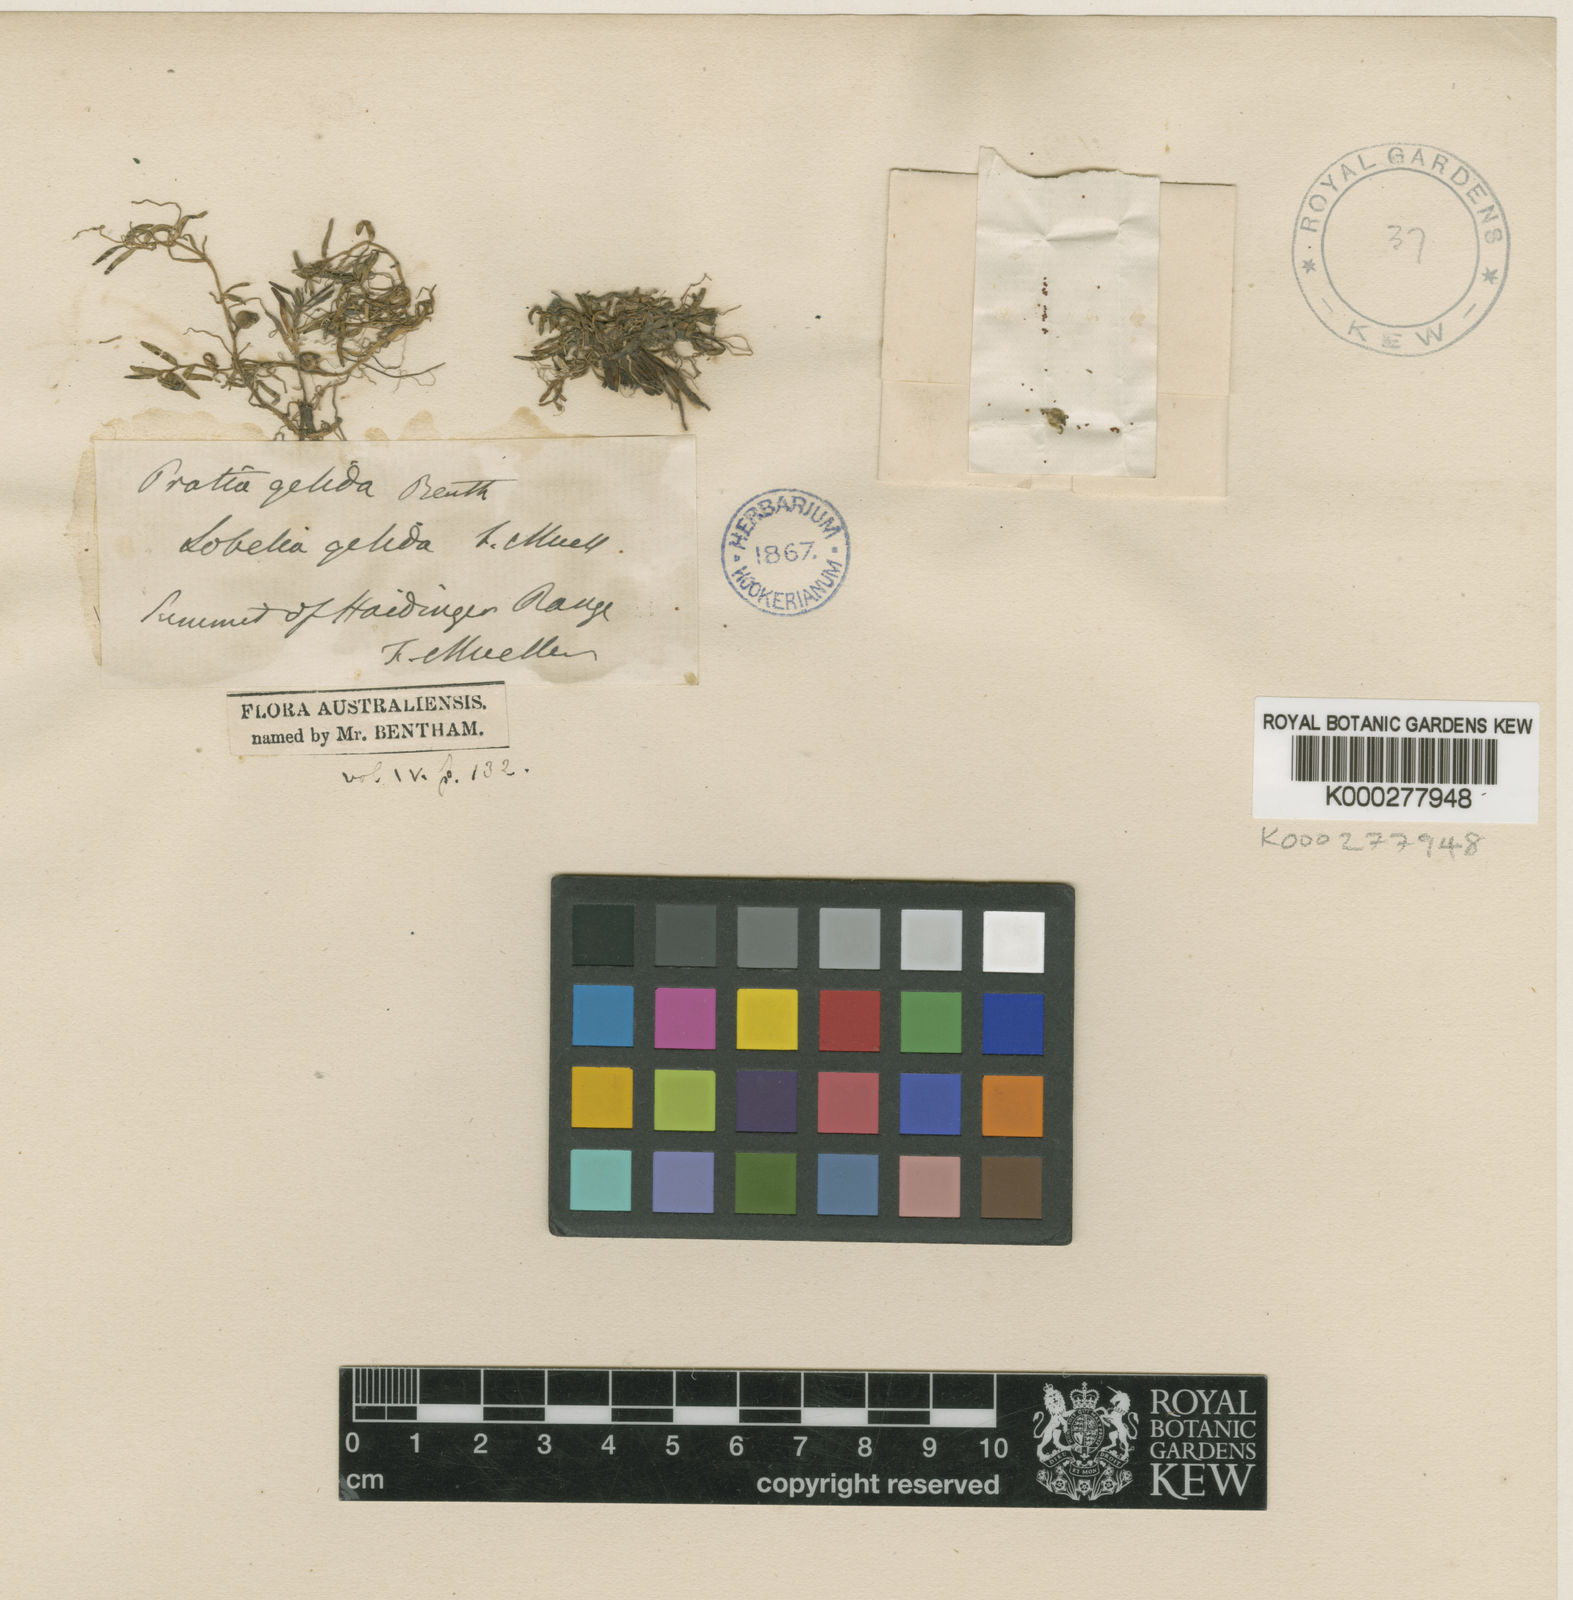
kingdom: Plantae
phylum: Tracheophyta
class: Magnoliopsida
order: Asterales
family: Campanulaceae
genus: Lobelia
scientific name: Lobelia gelida
